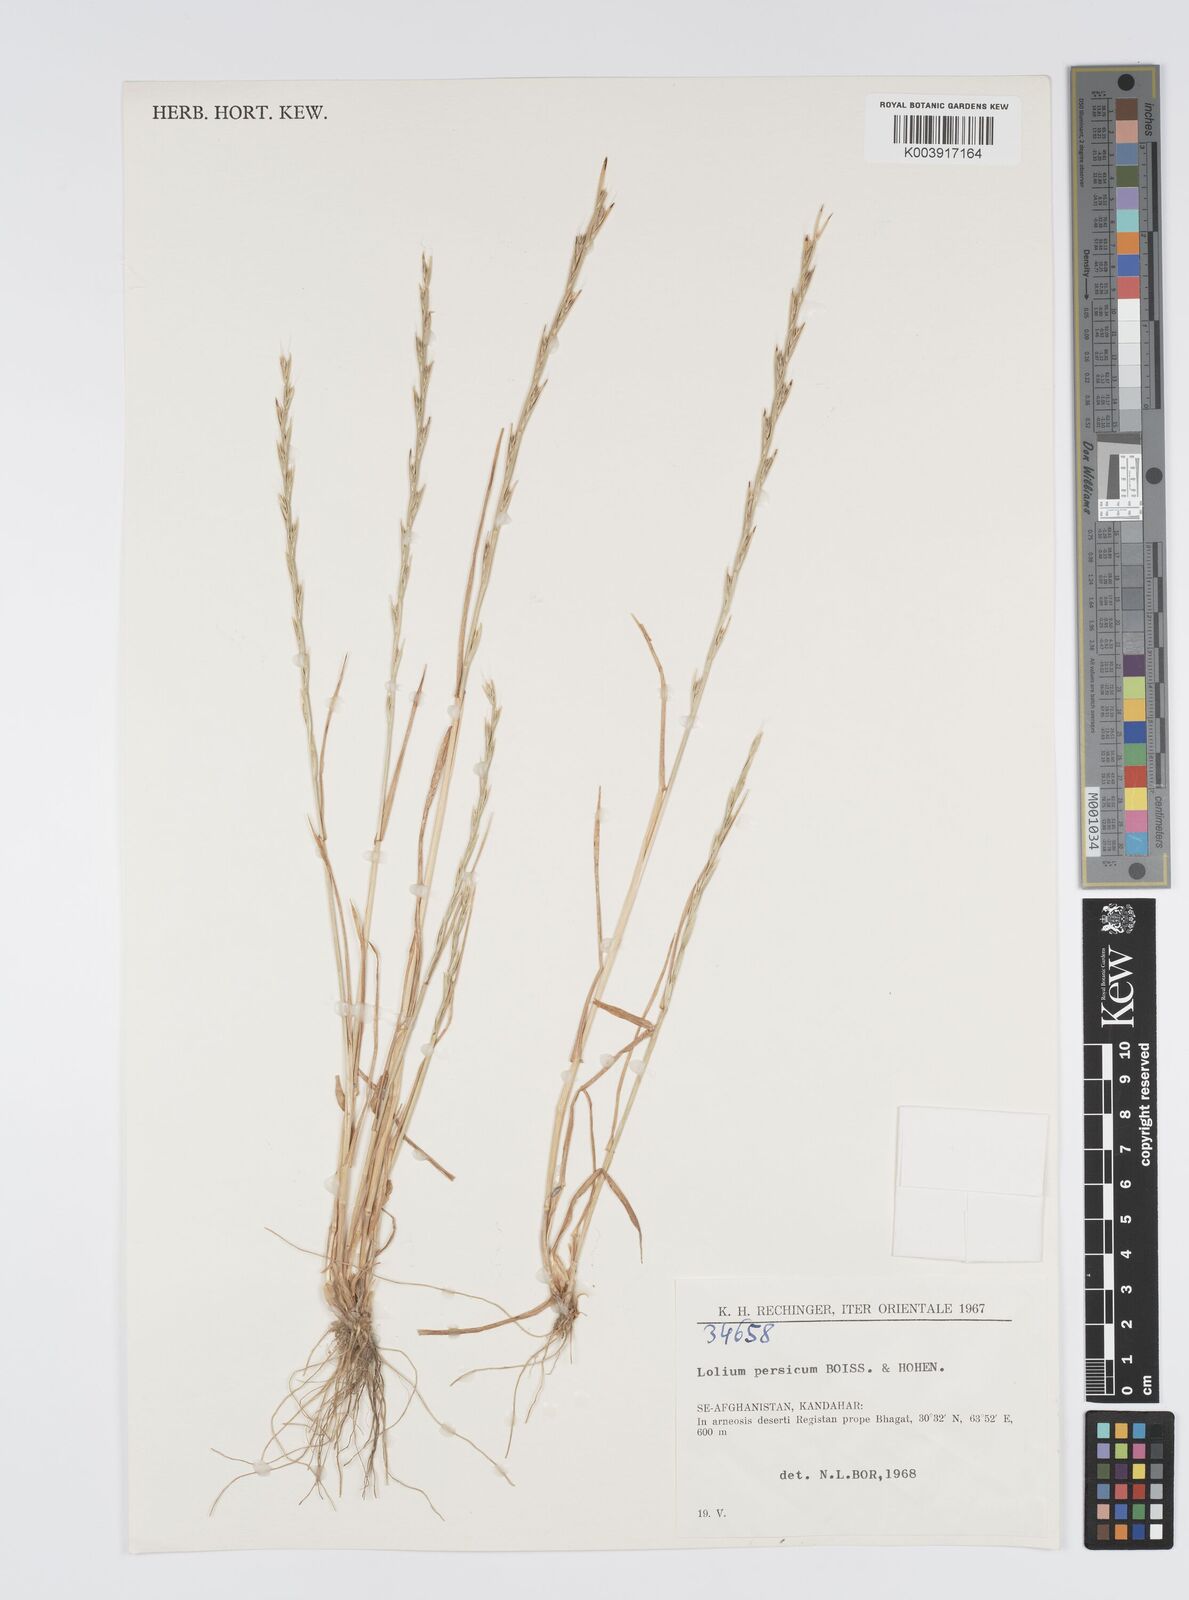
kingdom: Plantae
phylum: Tracheophyta
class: Liliopsida
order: Poales
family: Poaceae
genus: Lolium
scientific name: Lolium persicum
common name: Persian ryegrass
